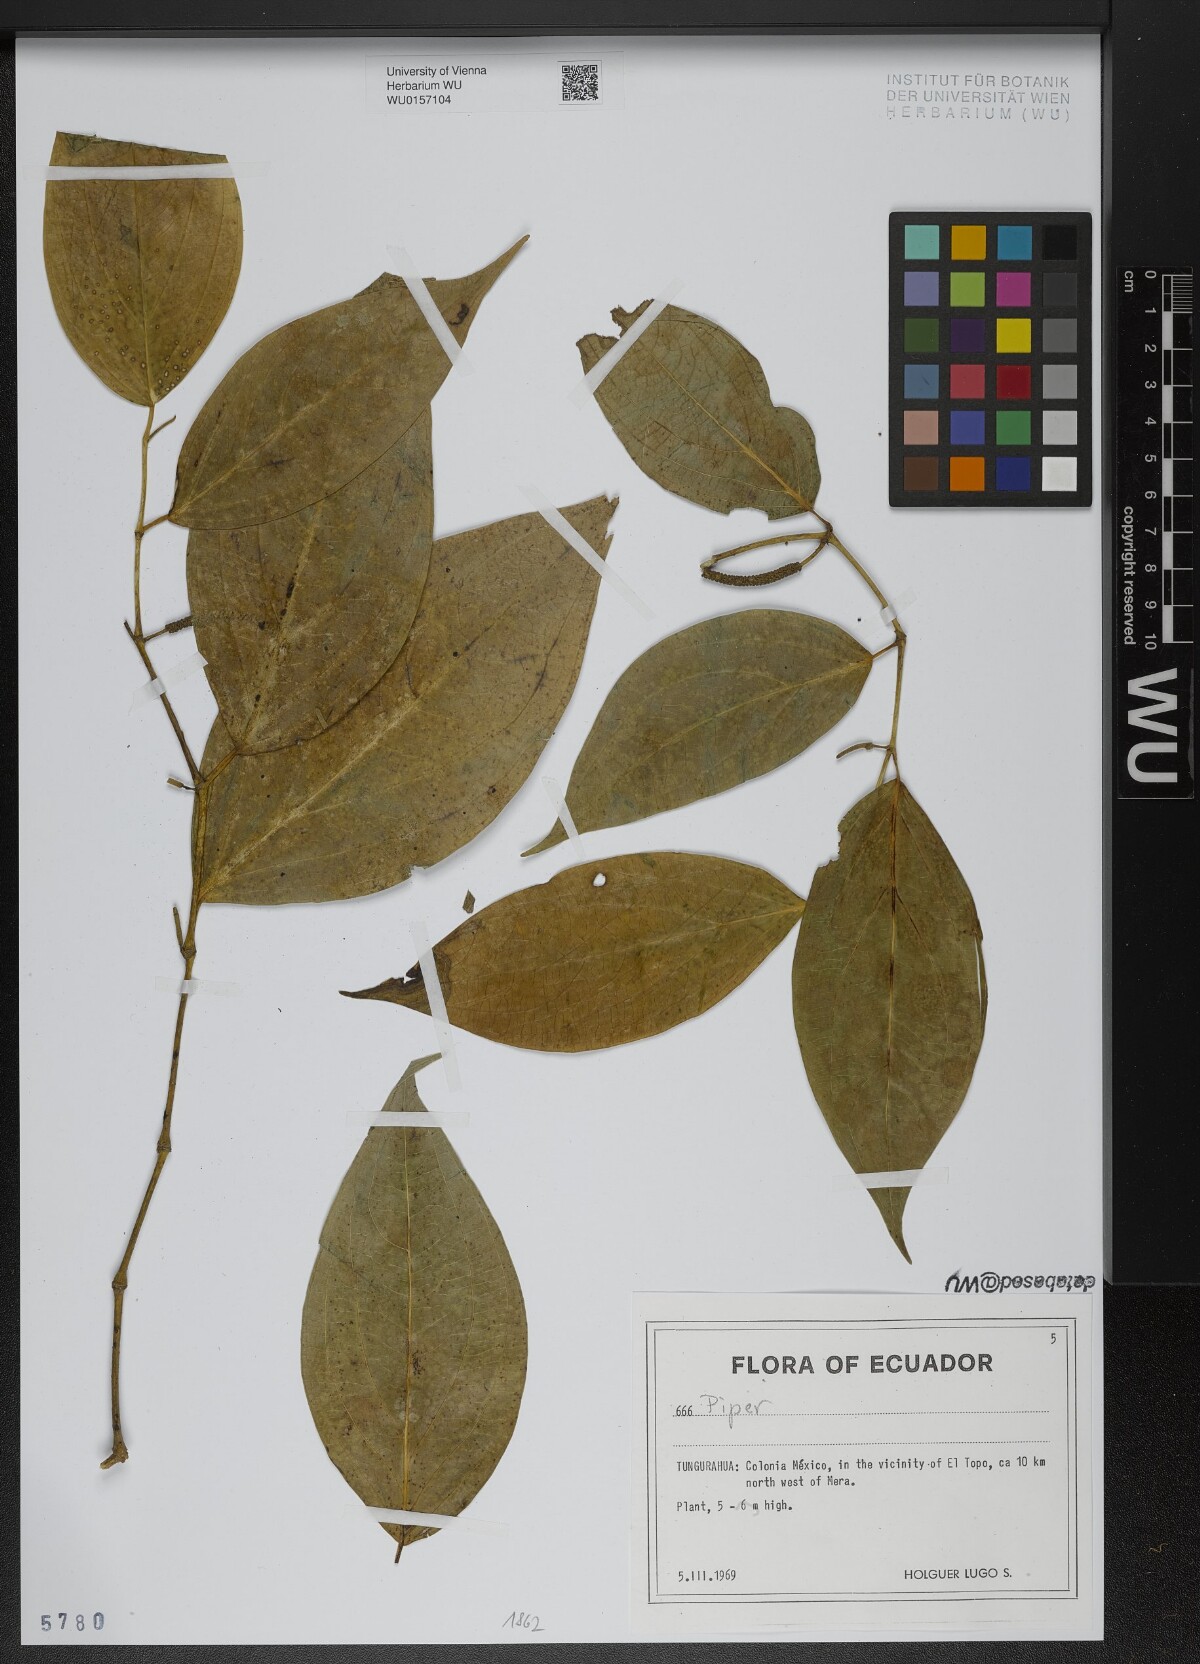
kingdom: Plantae
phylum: Tracheophyta
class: Magnoliopsida
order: Piperales
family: Piperaceae
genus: Piper
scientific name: Piper
